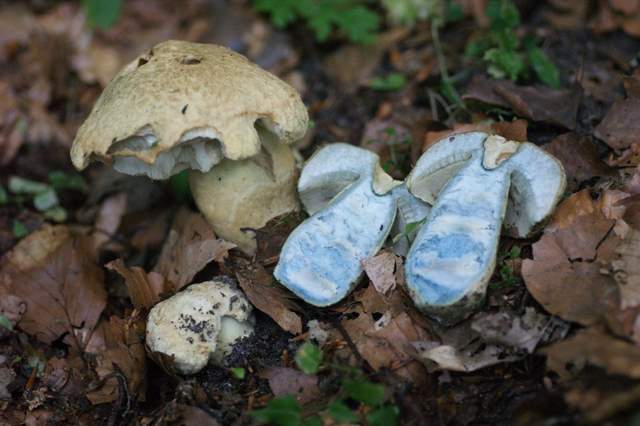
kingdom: Fungi
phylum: Basidiomycota
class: Agaricomycetes
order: Boletales
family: Gyroporaceae
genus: Gyroporus
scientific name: Gyroporus cyanescens
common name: blånende kammerrørhat
